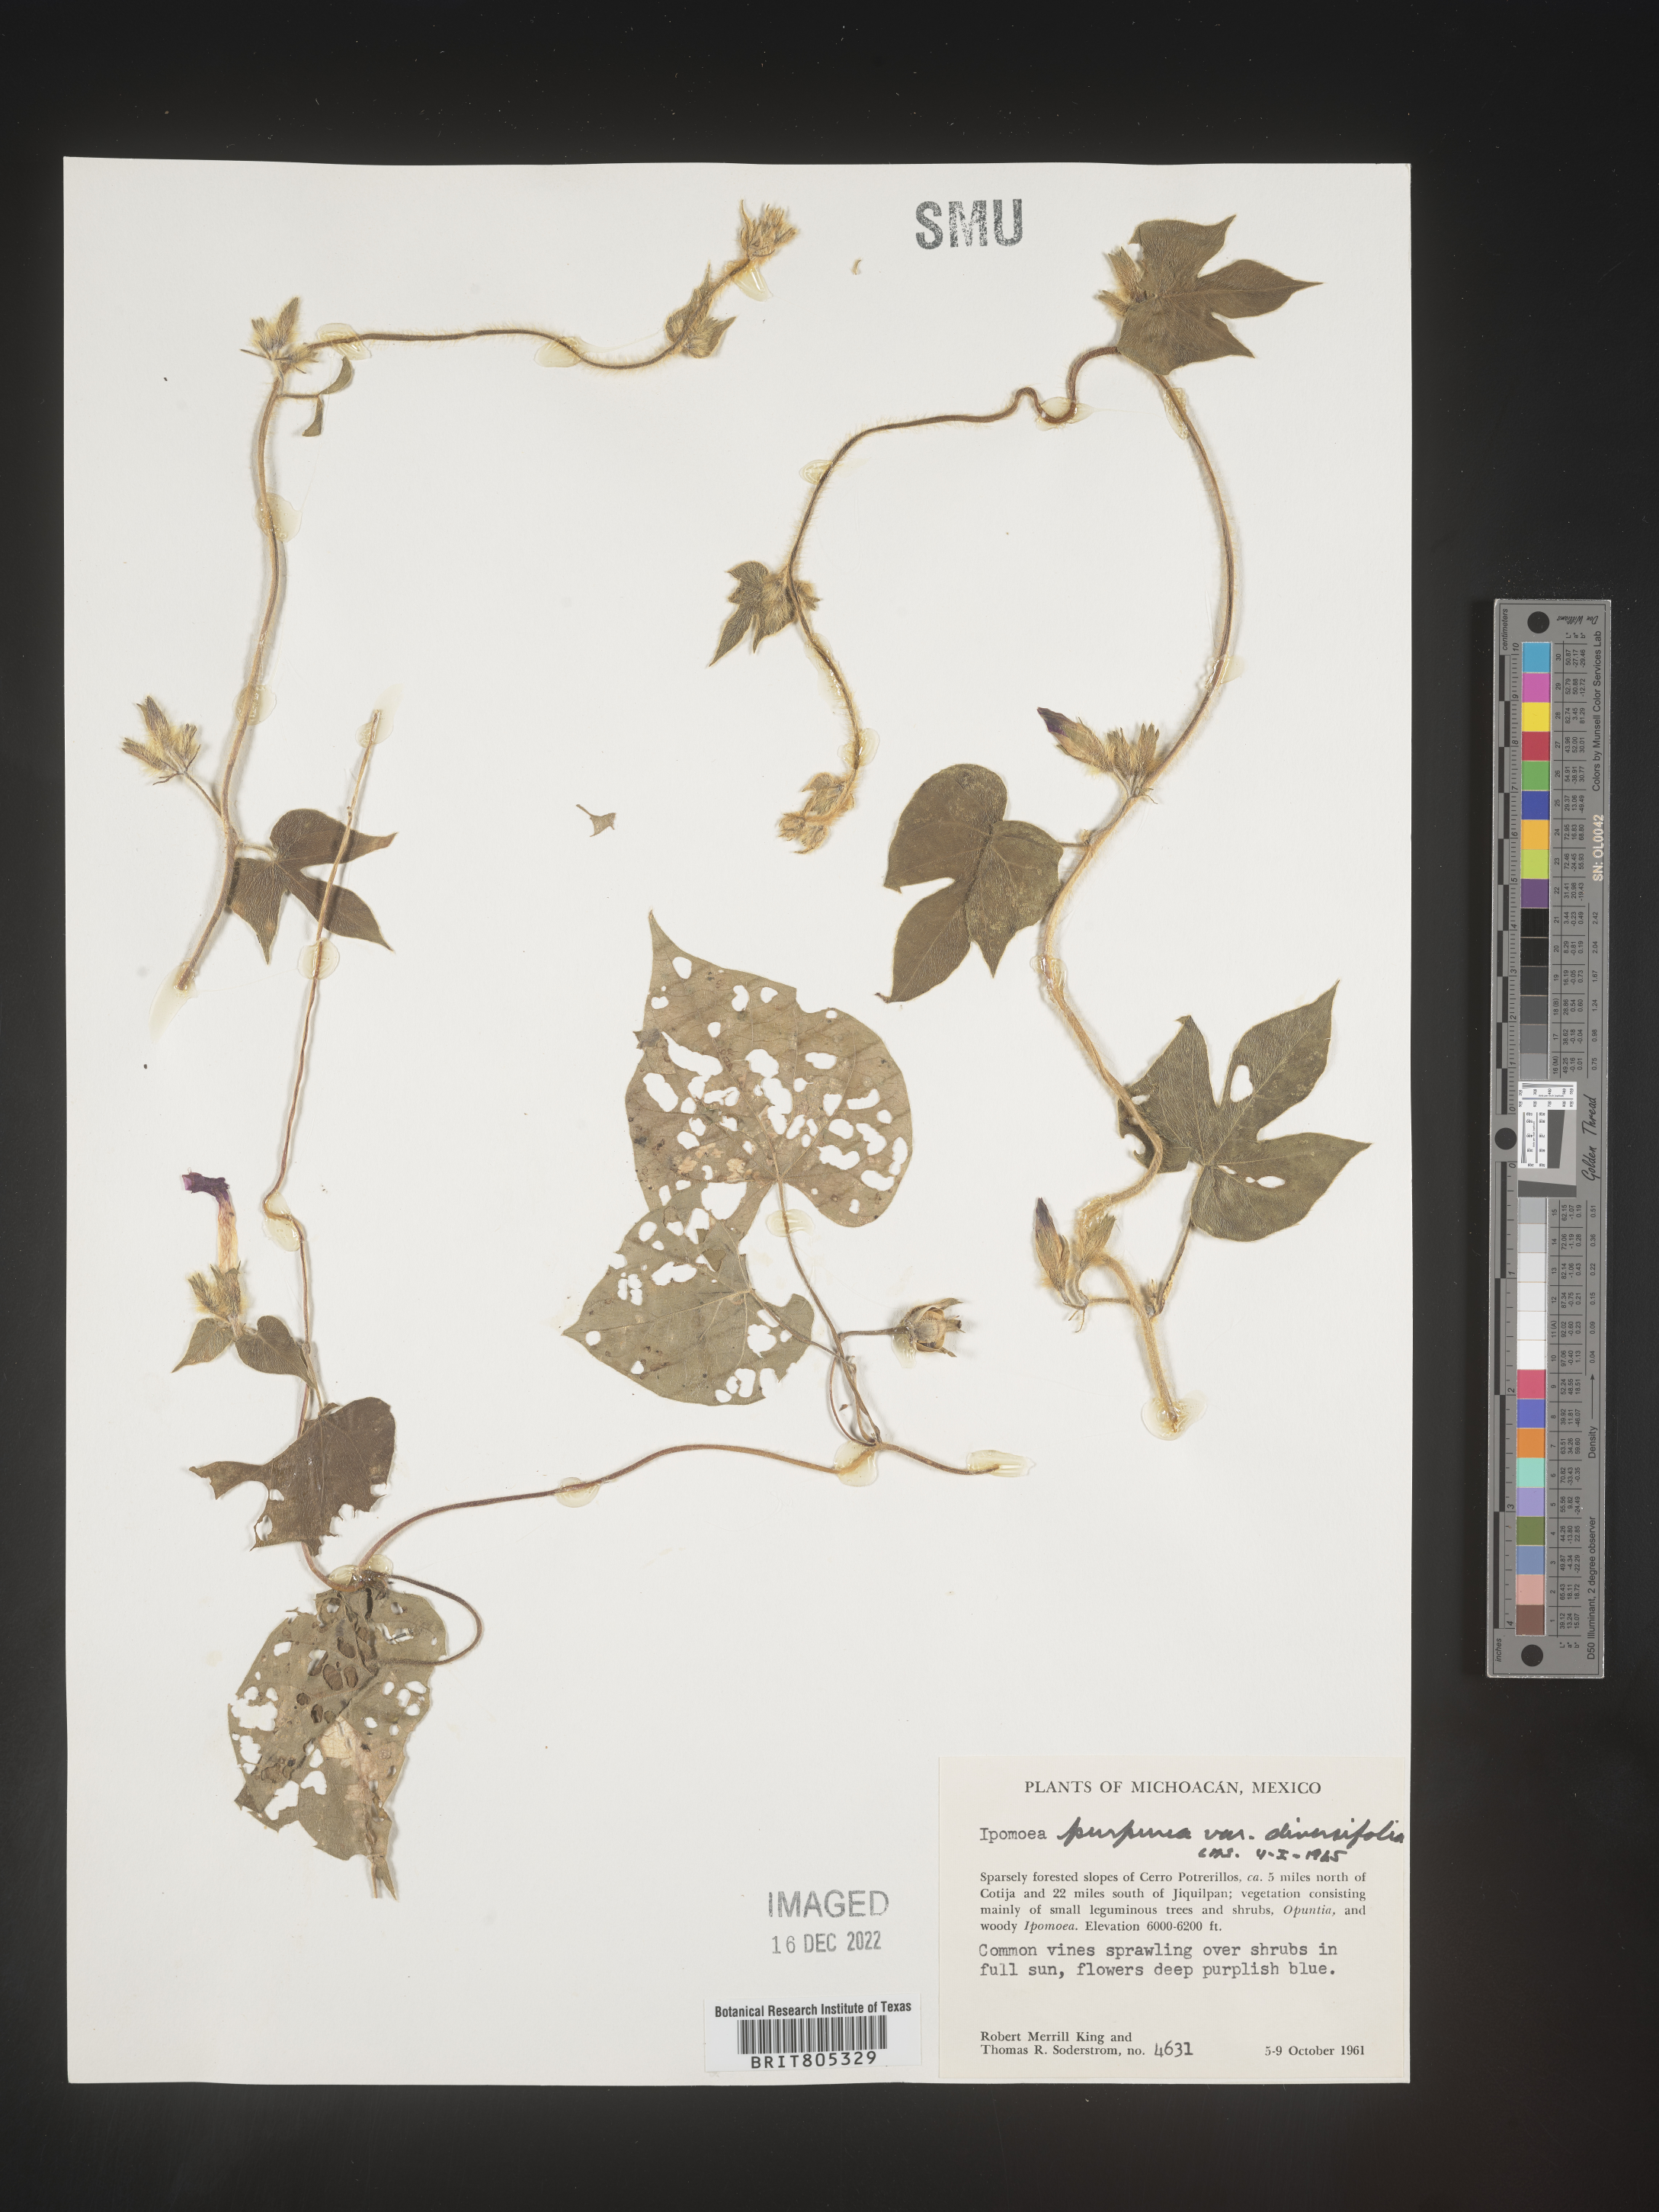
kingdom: Plantae
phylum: Tracheophyta
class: Magnoliopsida
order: Solanales
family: Convolvulaceae
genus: Ipomoea
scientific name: Ipomoea
